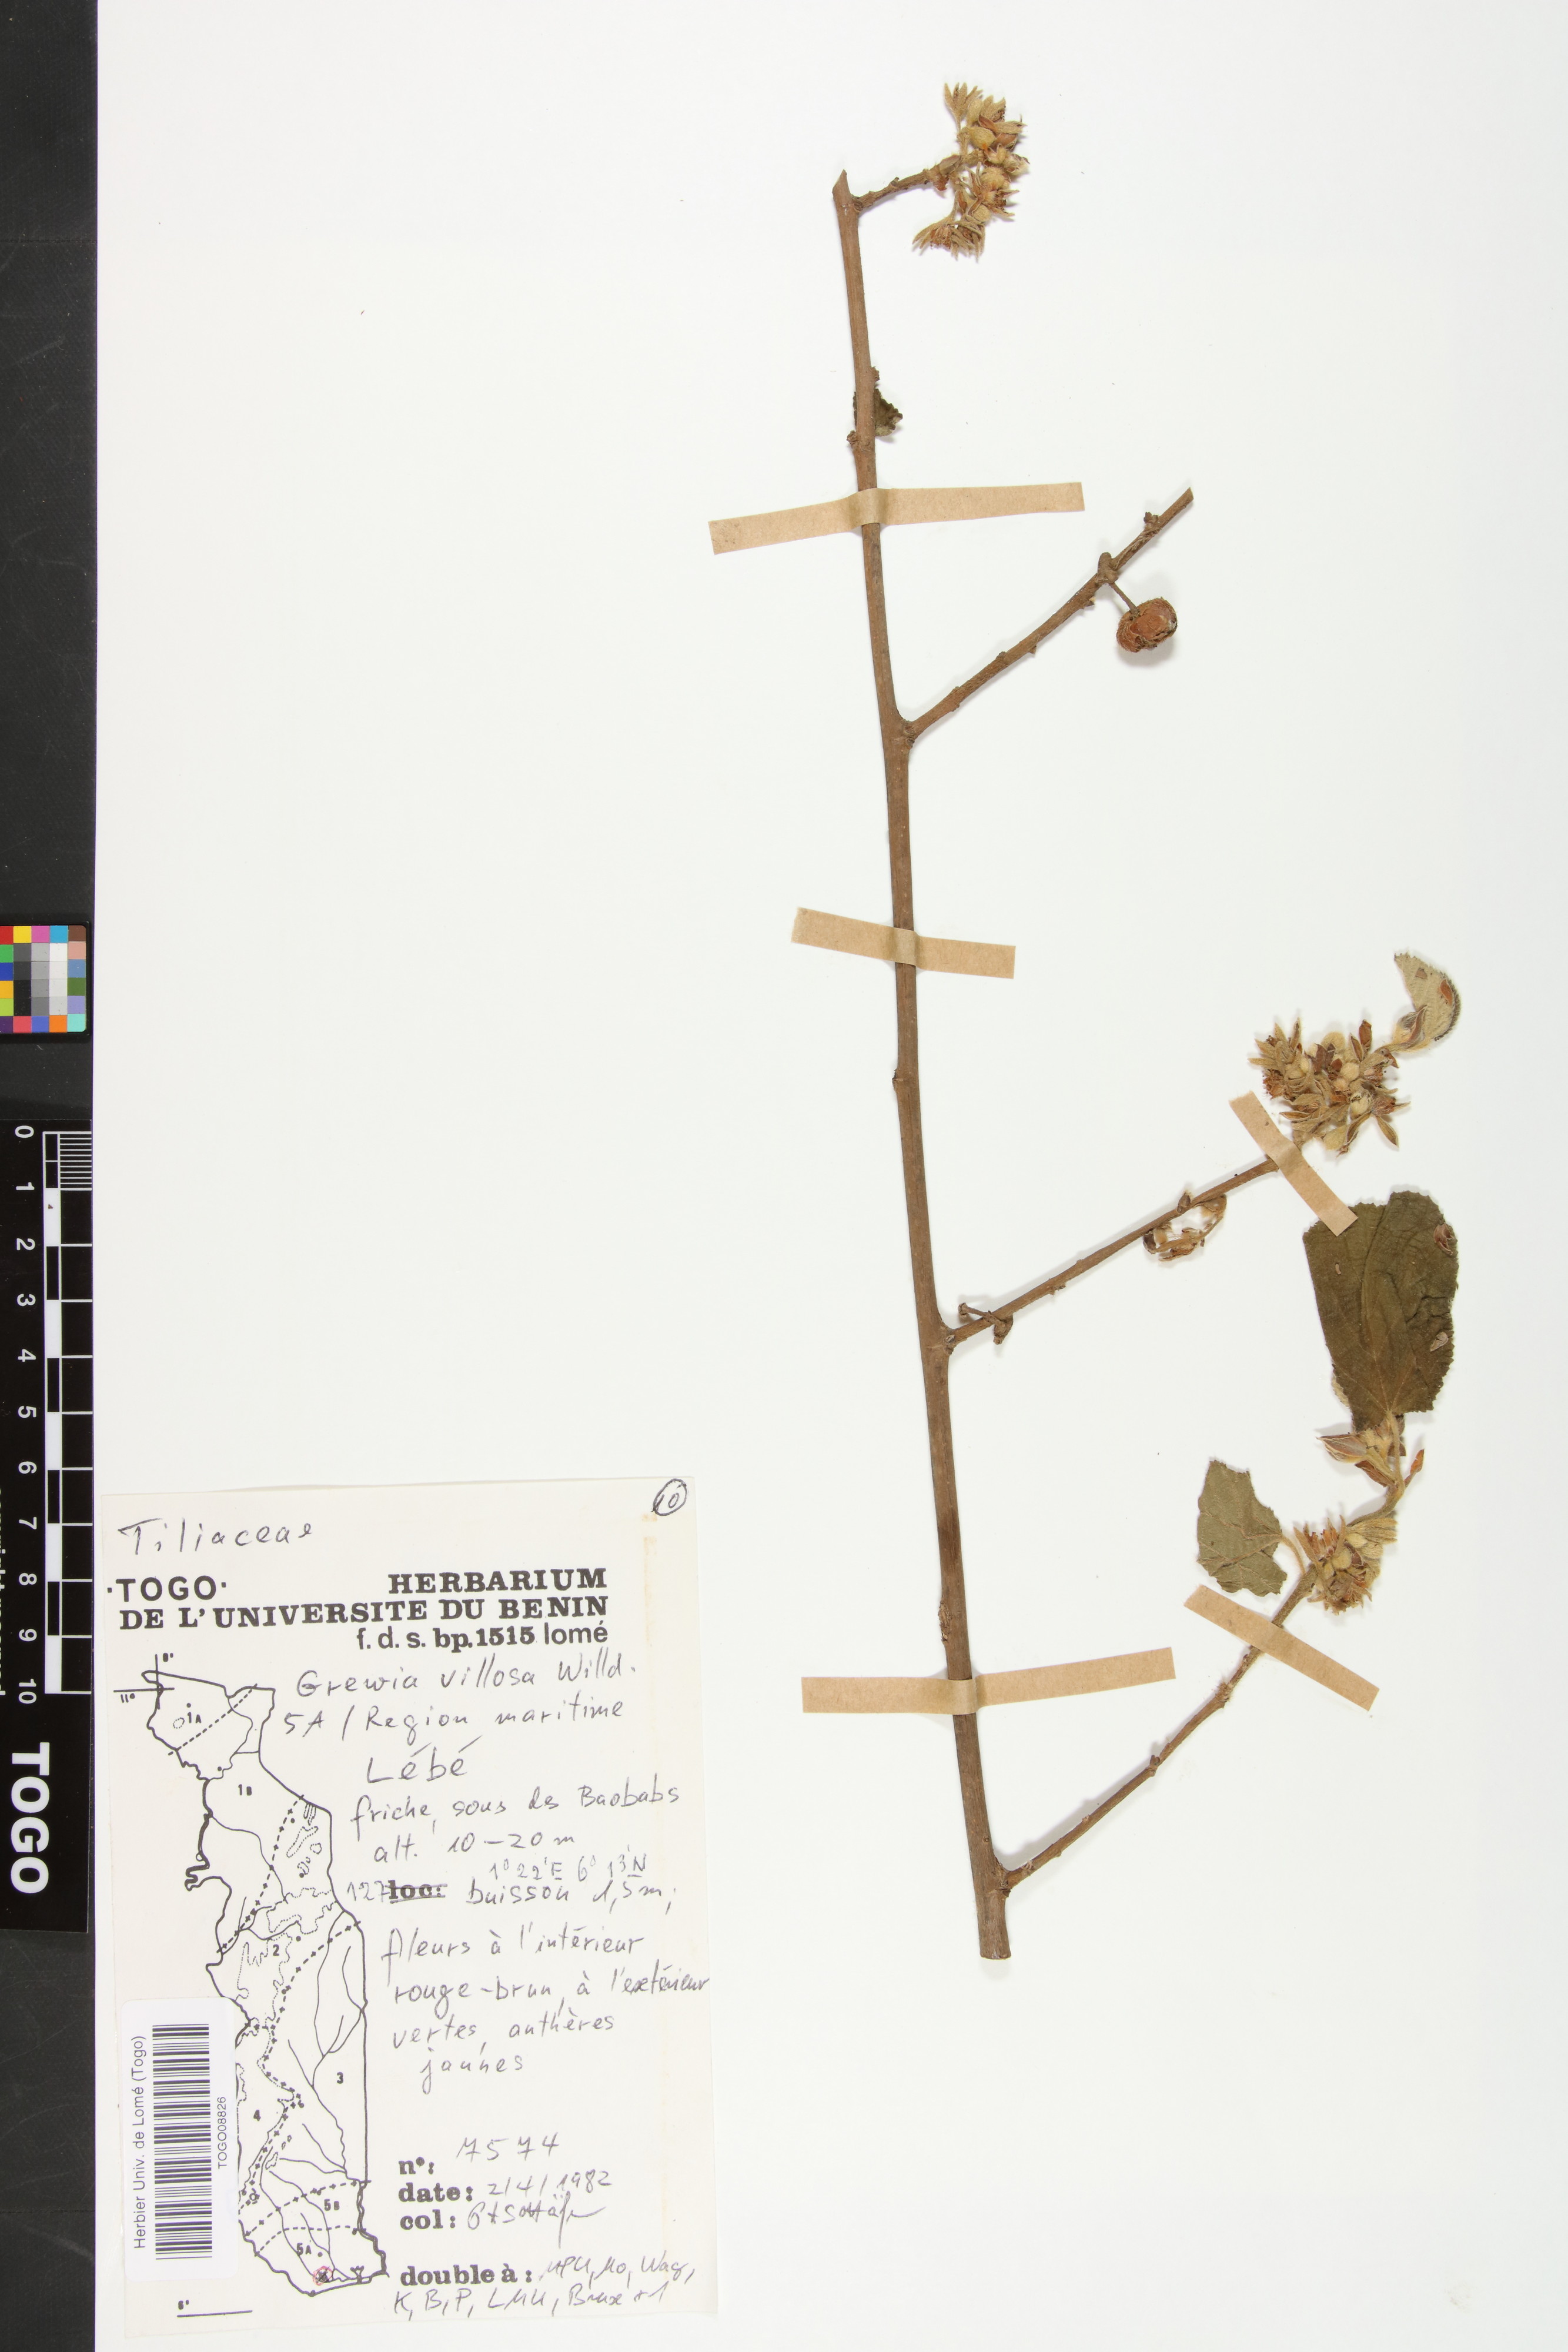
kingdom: Plantae
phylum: Tracheophyta
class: Magnoliopsida
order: Malvales
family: Malvaceae
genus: Grewia
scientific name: Grewia villosa
